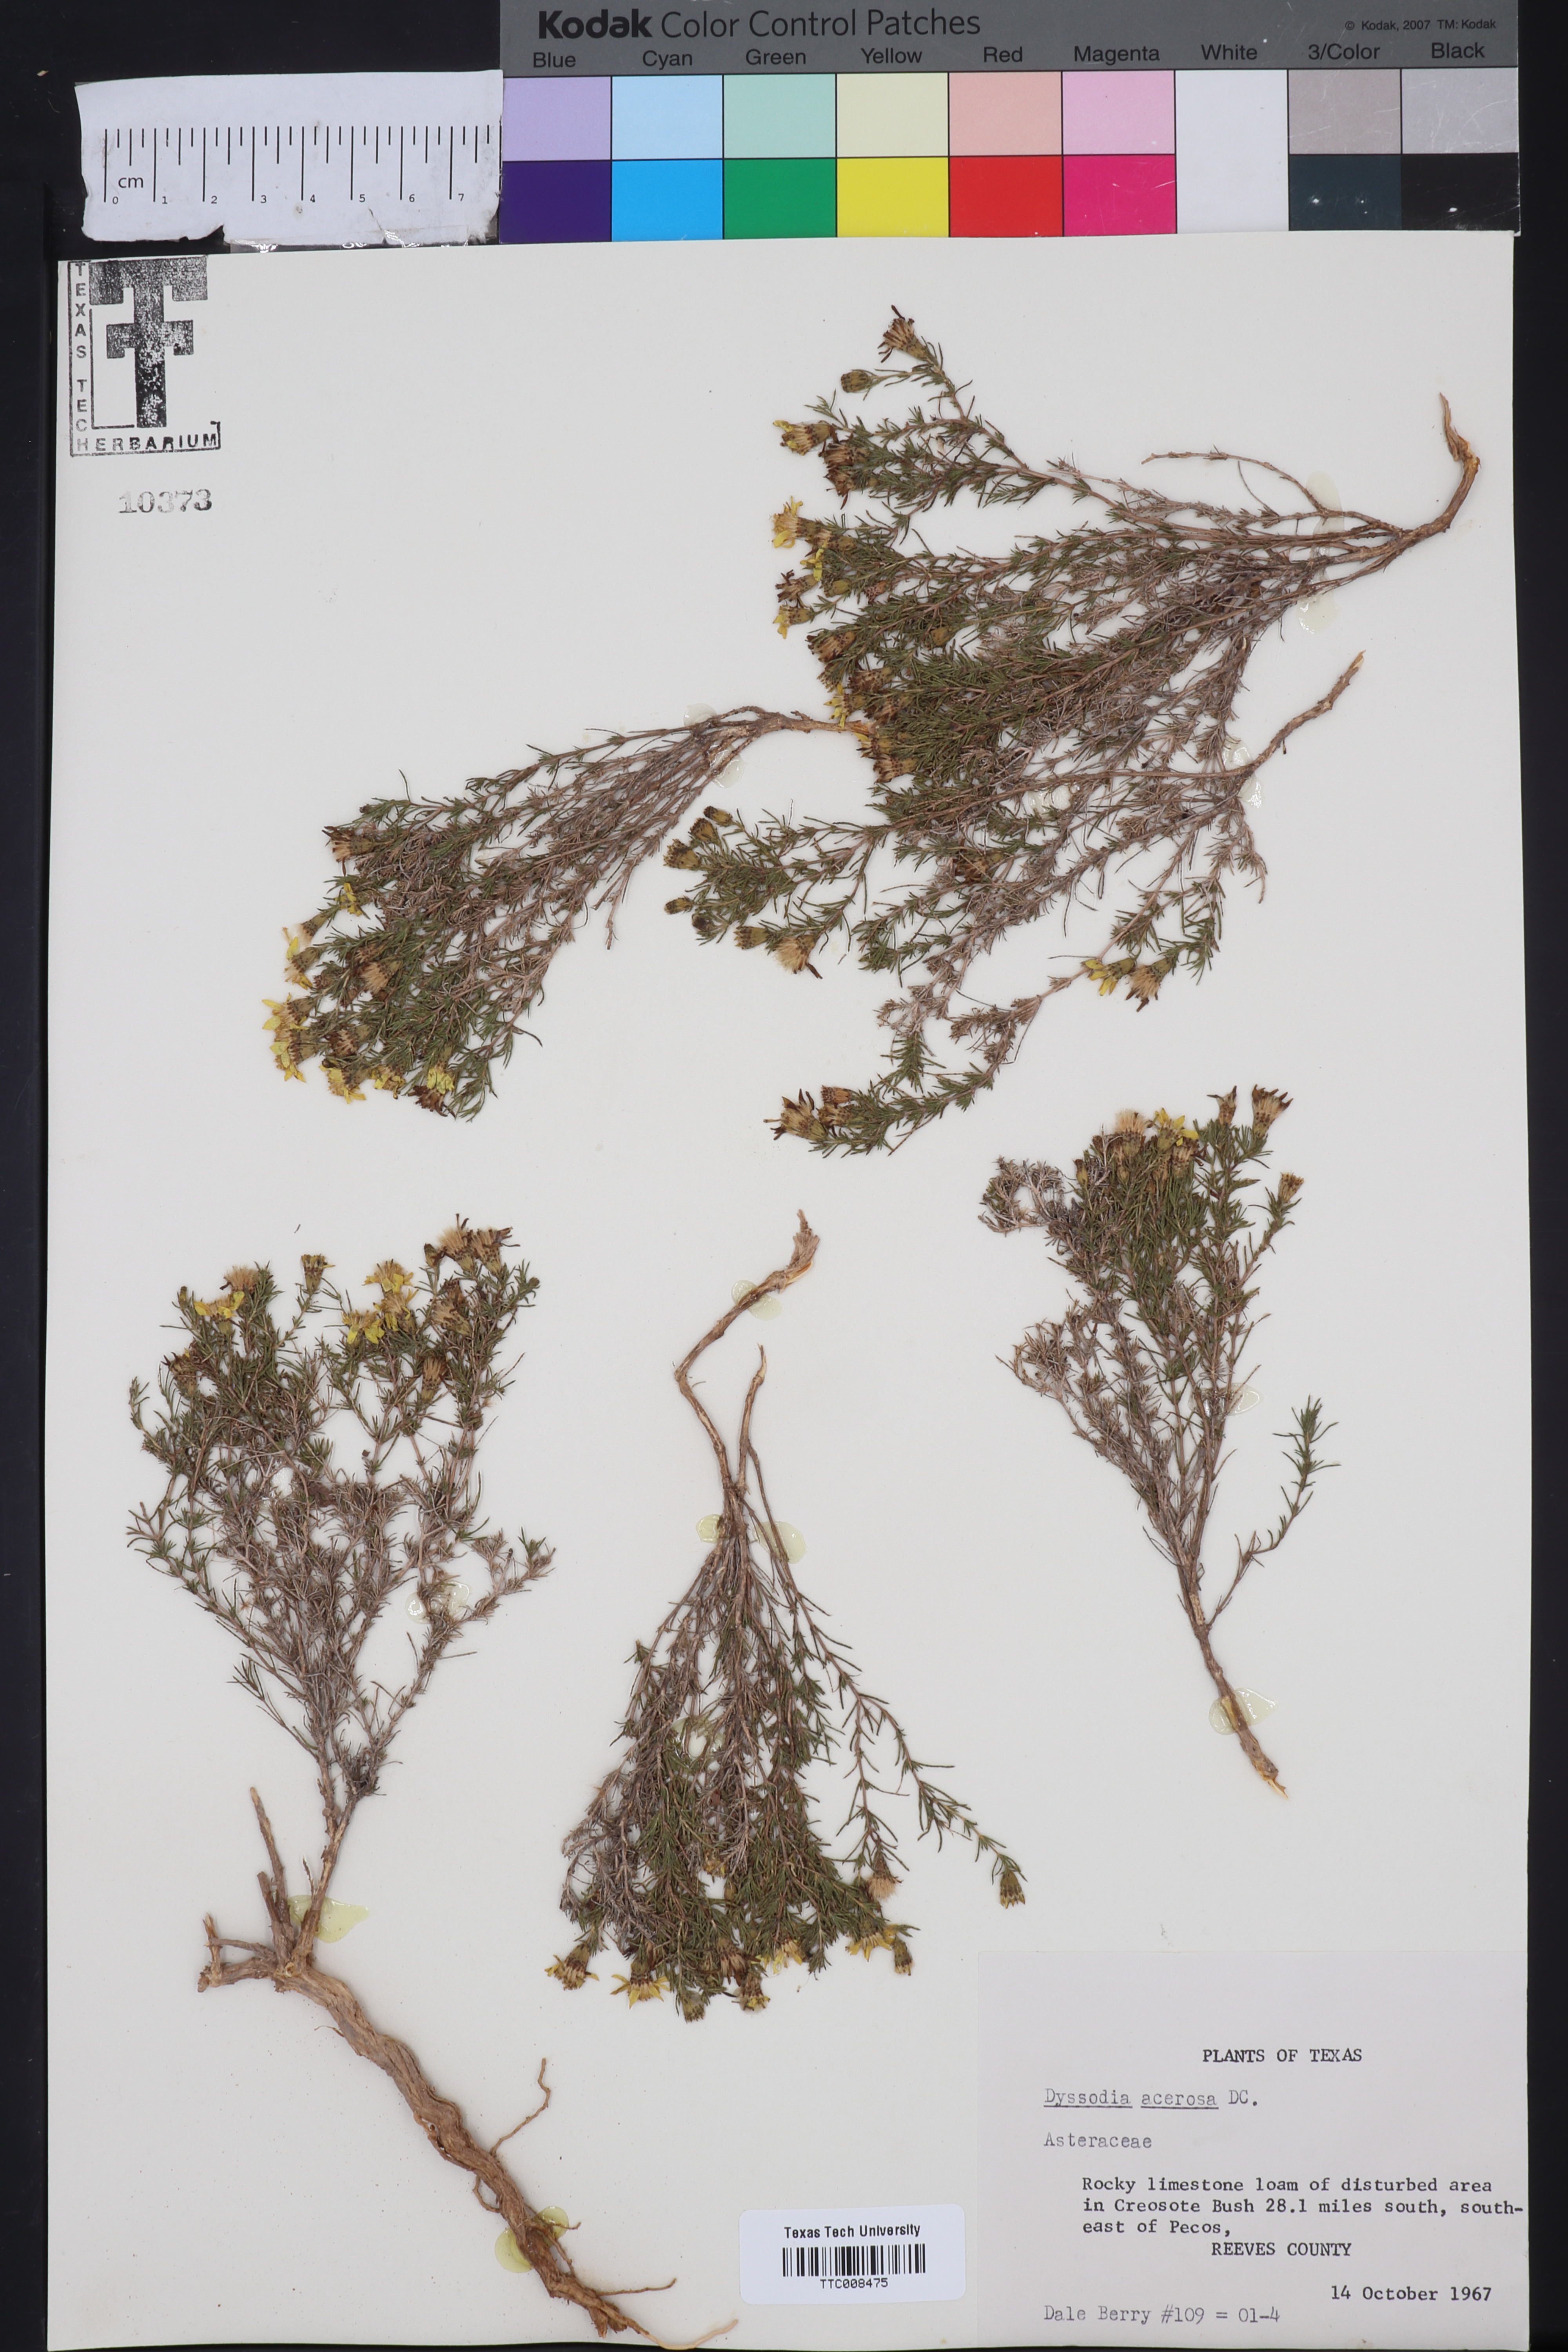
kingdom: Plantae
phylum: Tracheophyta
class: Magnoliopsida
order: Asterales
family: Asteraceae
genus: Thymophylla
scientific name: Thymophylla acerosa
